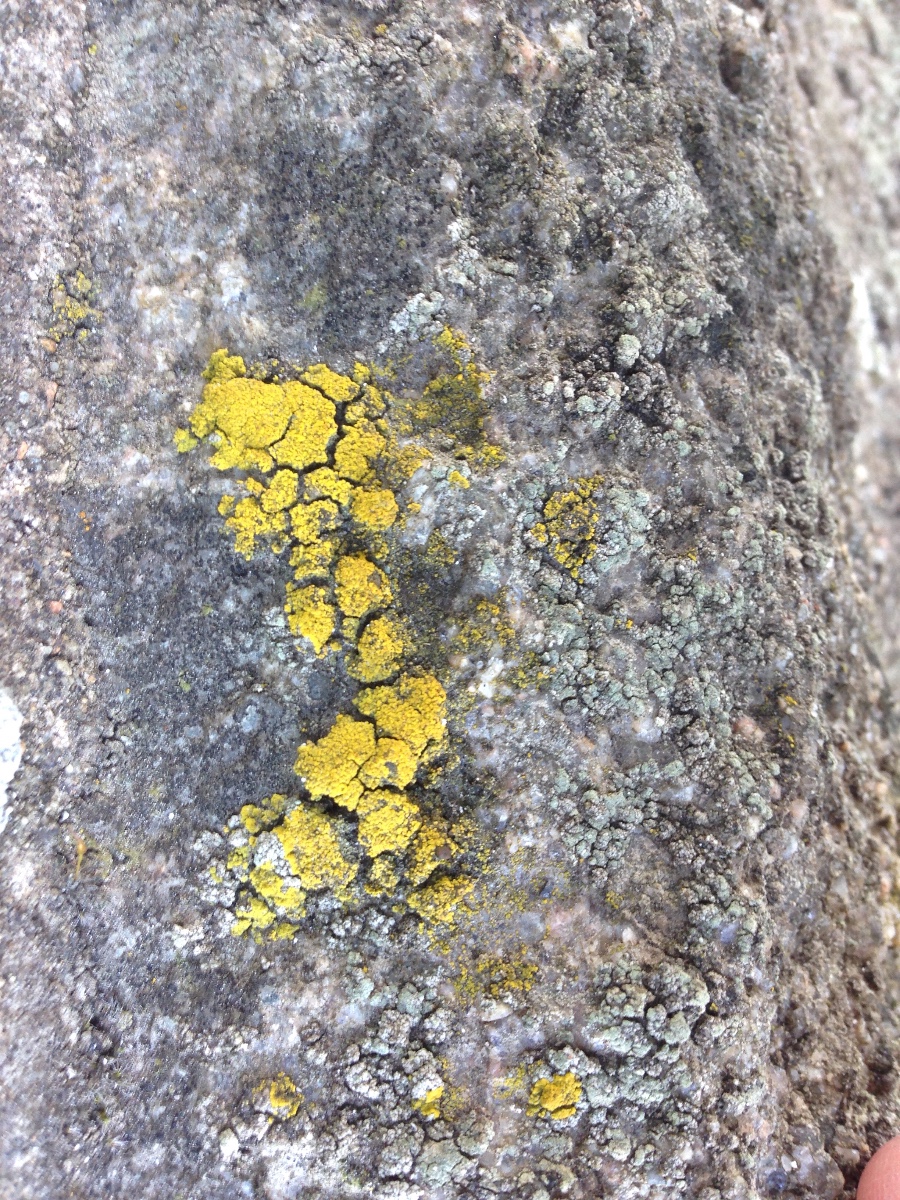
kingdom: Fungi
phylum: Ascomycota
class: Candelariomycetes
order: Candelariales
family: Candelariaceae
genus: Candelariella
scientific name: Candelariella
